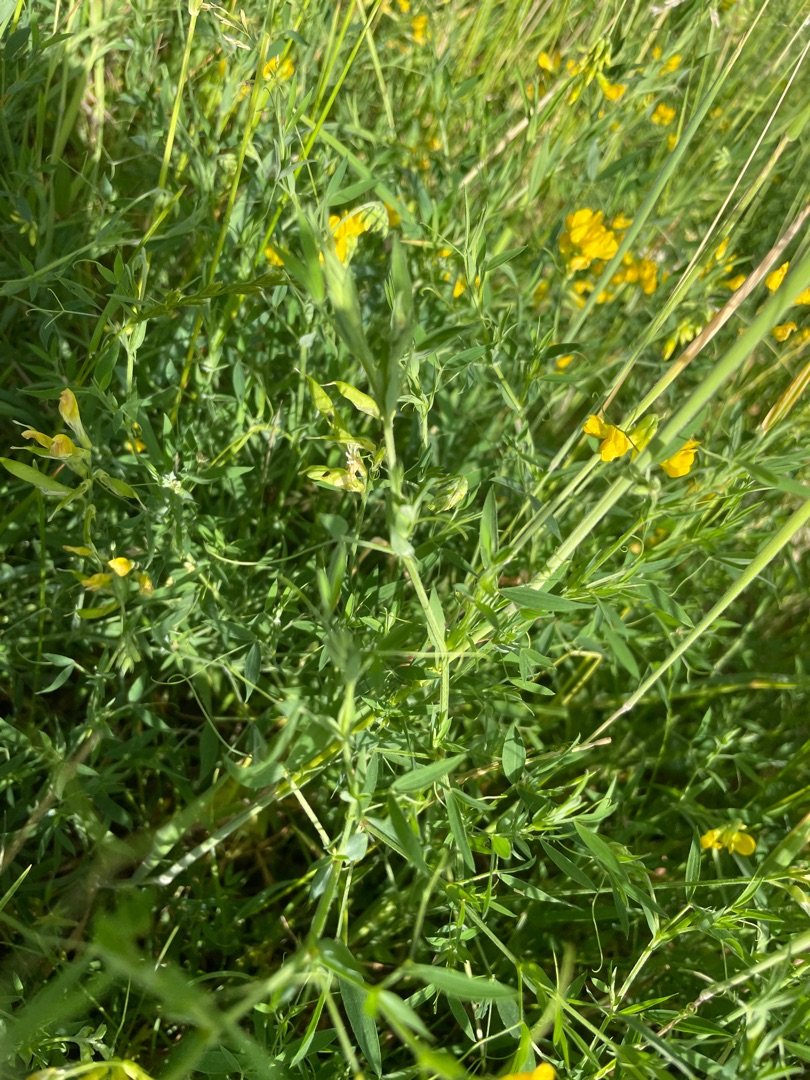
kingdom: Plantae
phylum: Tracheophyta
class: Magnoliopsida
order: Fabales
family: Fabaceae
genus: Lathyrus
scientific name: Lathyrus pratensis
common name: Gul fladbælg
